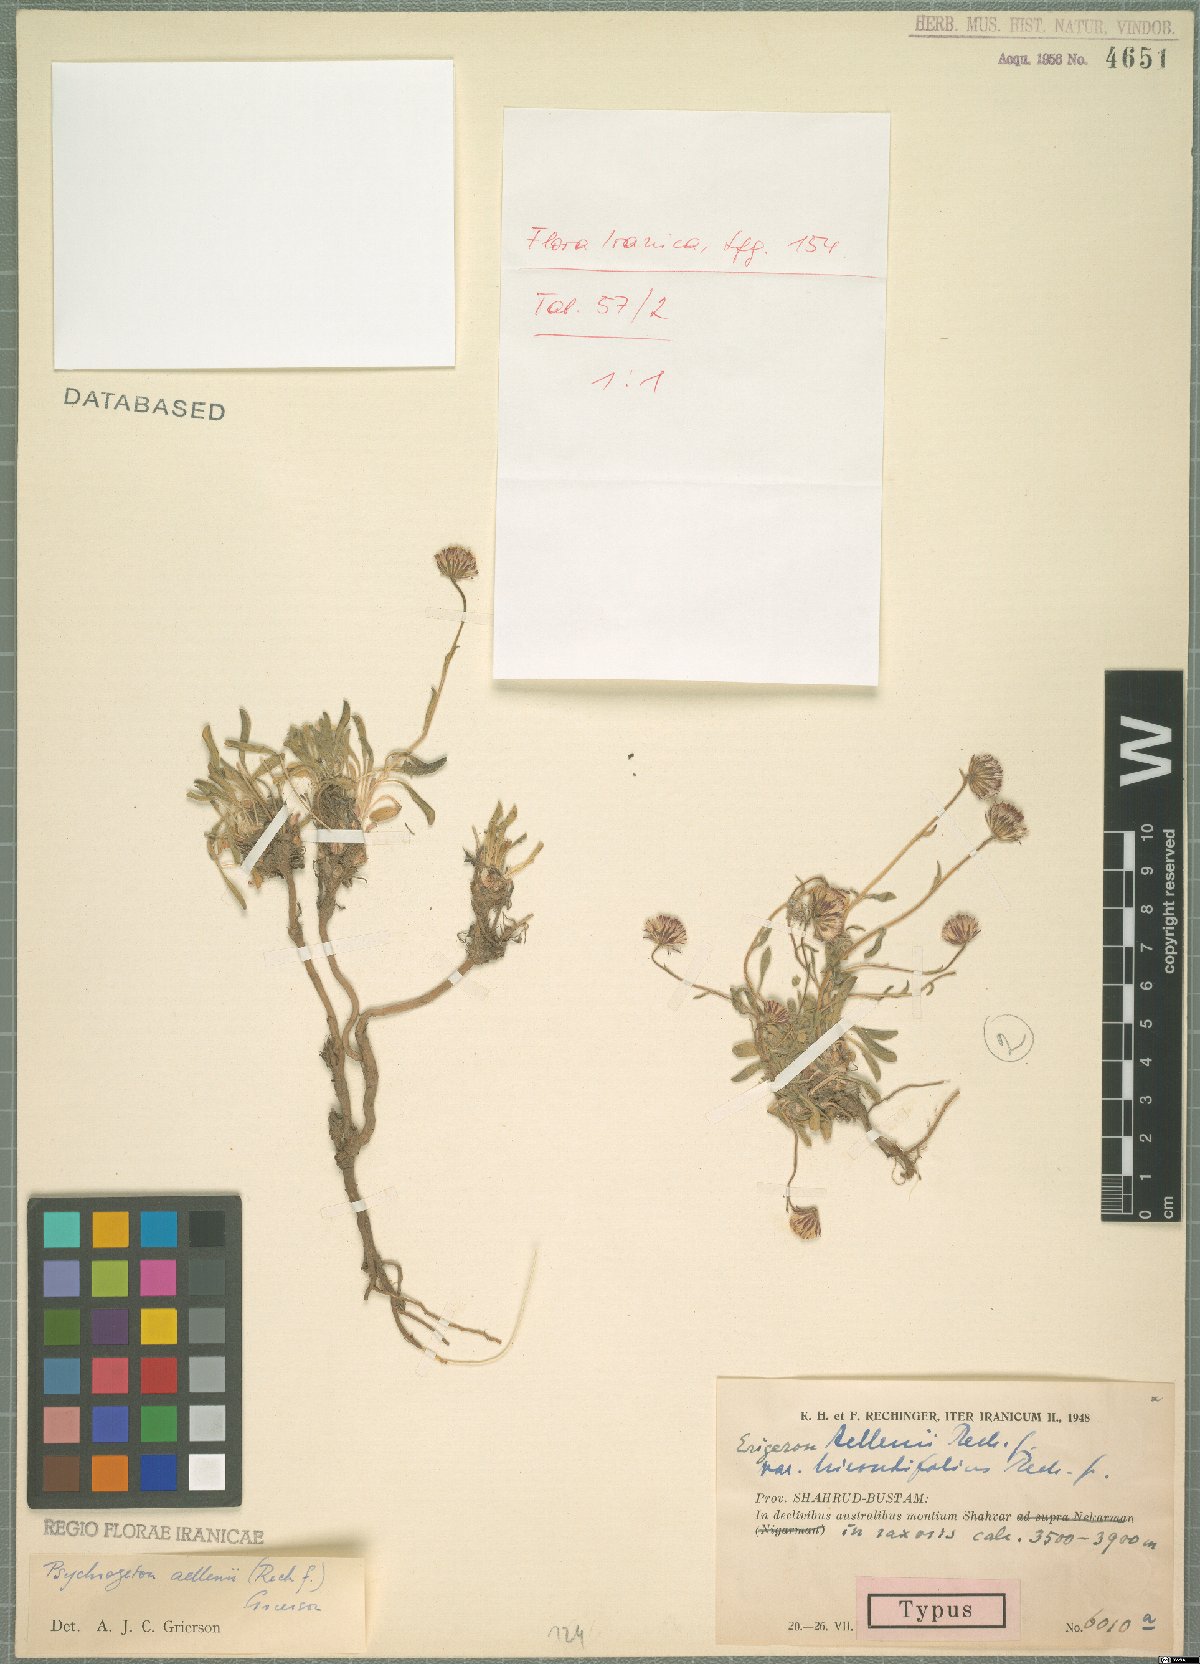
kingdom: Plantae
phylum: Tracheophyta
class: Magnoliopsida
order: Asterales
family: Asteraceae
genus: Psychrogeton
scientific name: Psychrogeton aellenii
